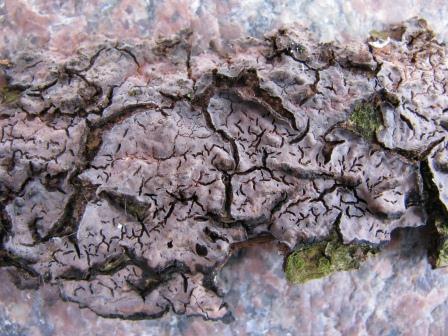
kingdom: Fungi
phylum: Basidiomycota
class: Agaricomycetes
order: Russulales
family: Peniophoraceae
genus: Peniophora
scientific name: Peniophora quercina
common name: ege-voksskind
